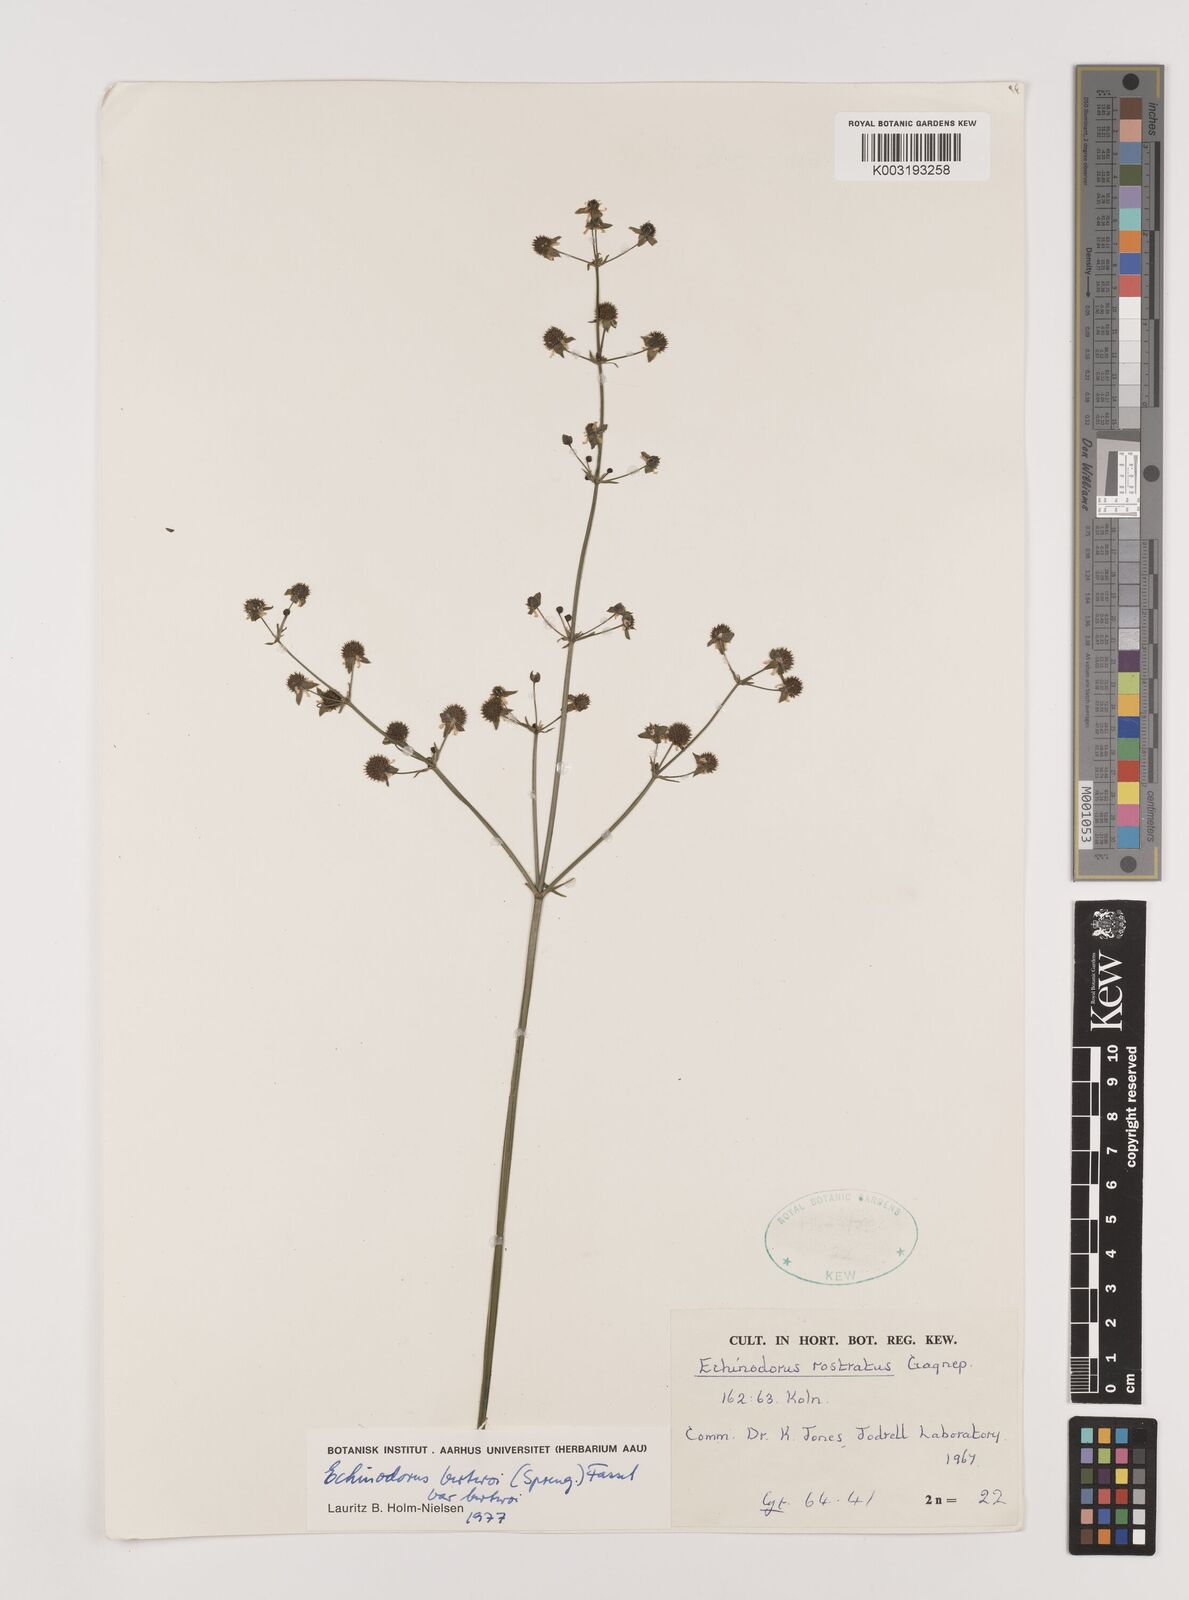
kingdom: Plantae
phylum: Tracheophyta
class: Liliopsida
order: Alismatales
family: Alismataceae
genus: Echinodorus
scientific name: Echinodorus berteroi
